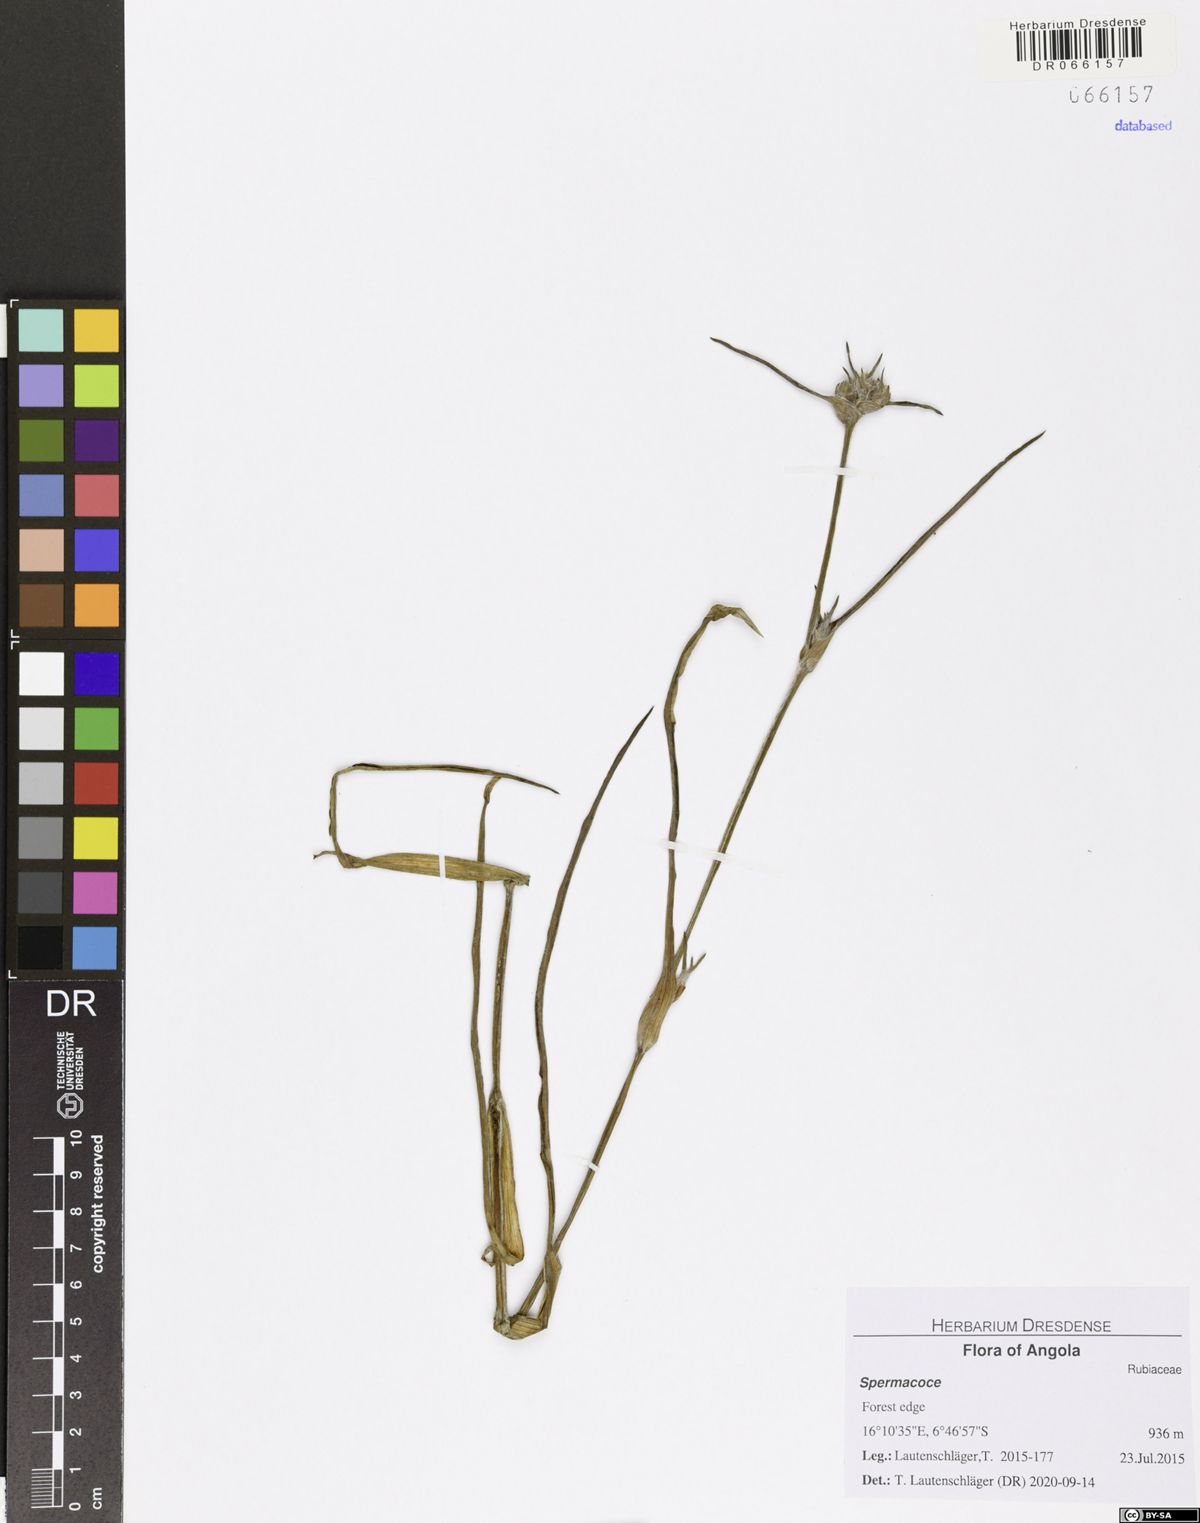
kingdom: Plantae
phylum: Tracheophyta
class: Liliopsida
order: Commelinales
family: Commelinaceae
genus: Cyanotis
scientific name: Cyanotis longifolia
